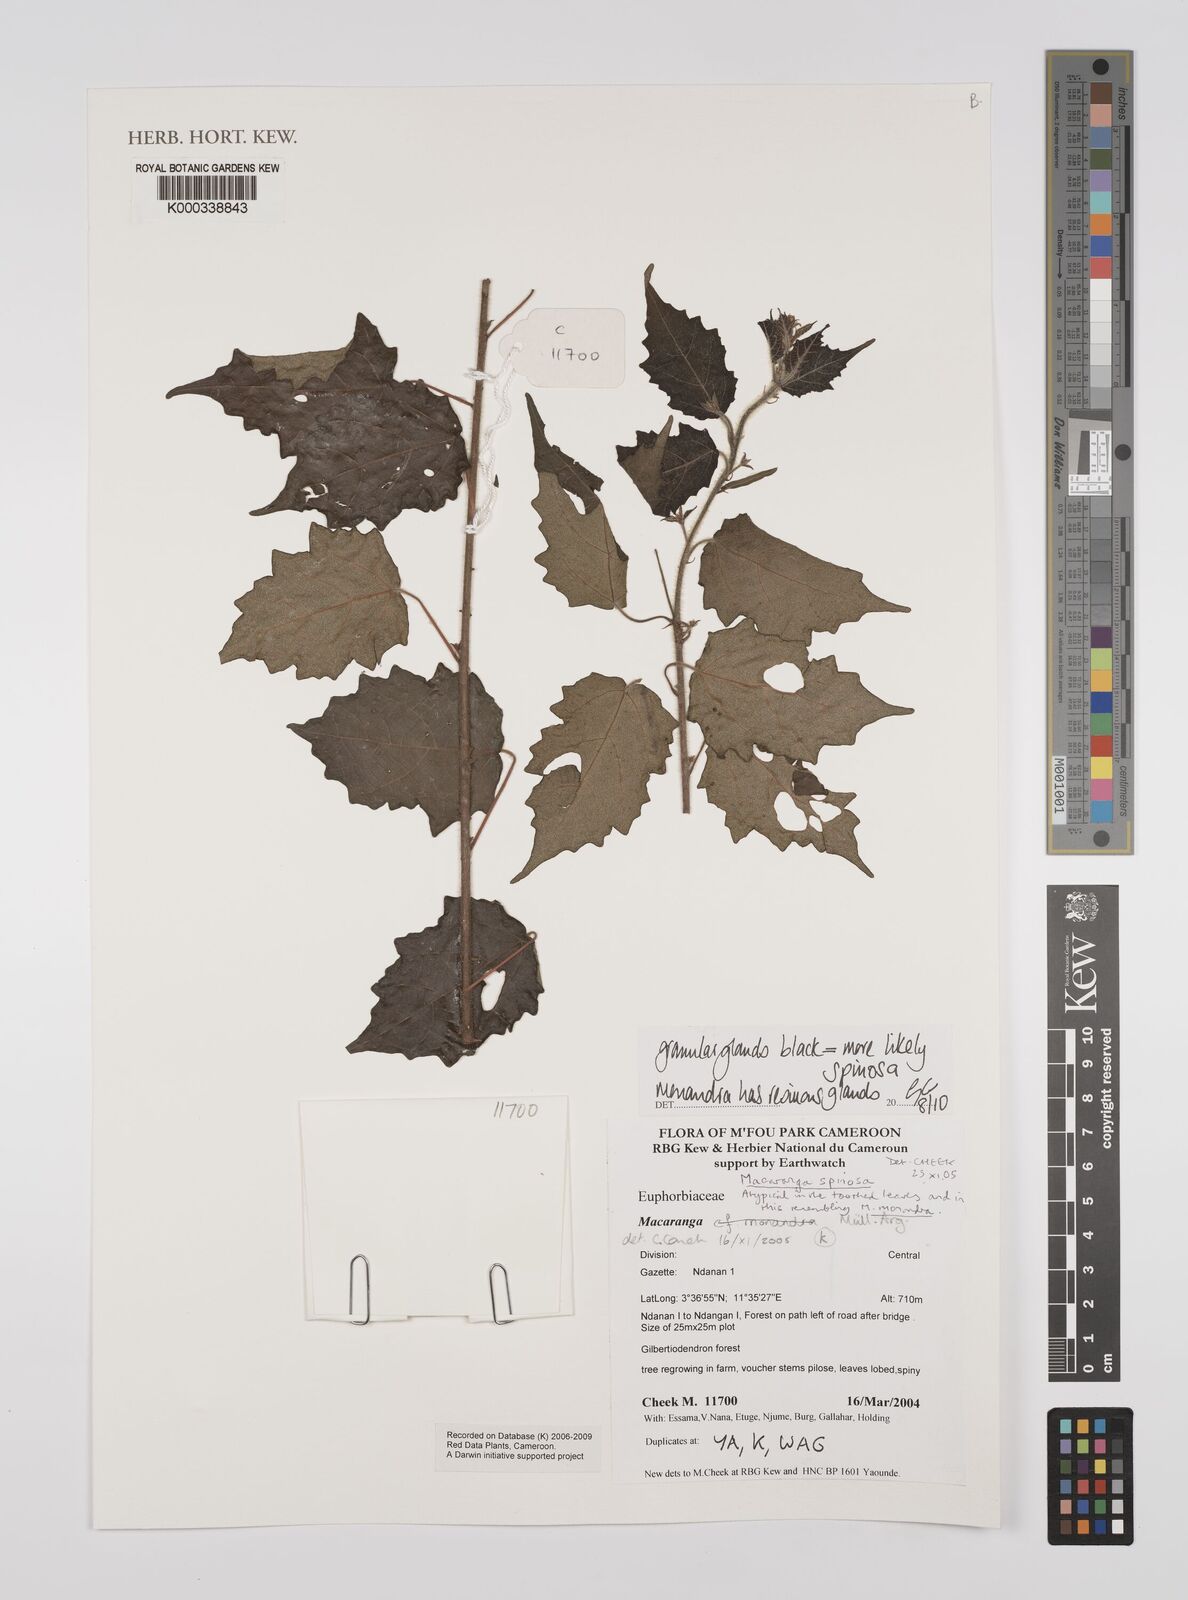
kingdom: Plantae
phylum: Tracheophyta
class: Magnoliopsida
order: Malpighiales
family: Euphorbiaceae
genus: Macaranga
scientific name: Macaranga
